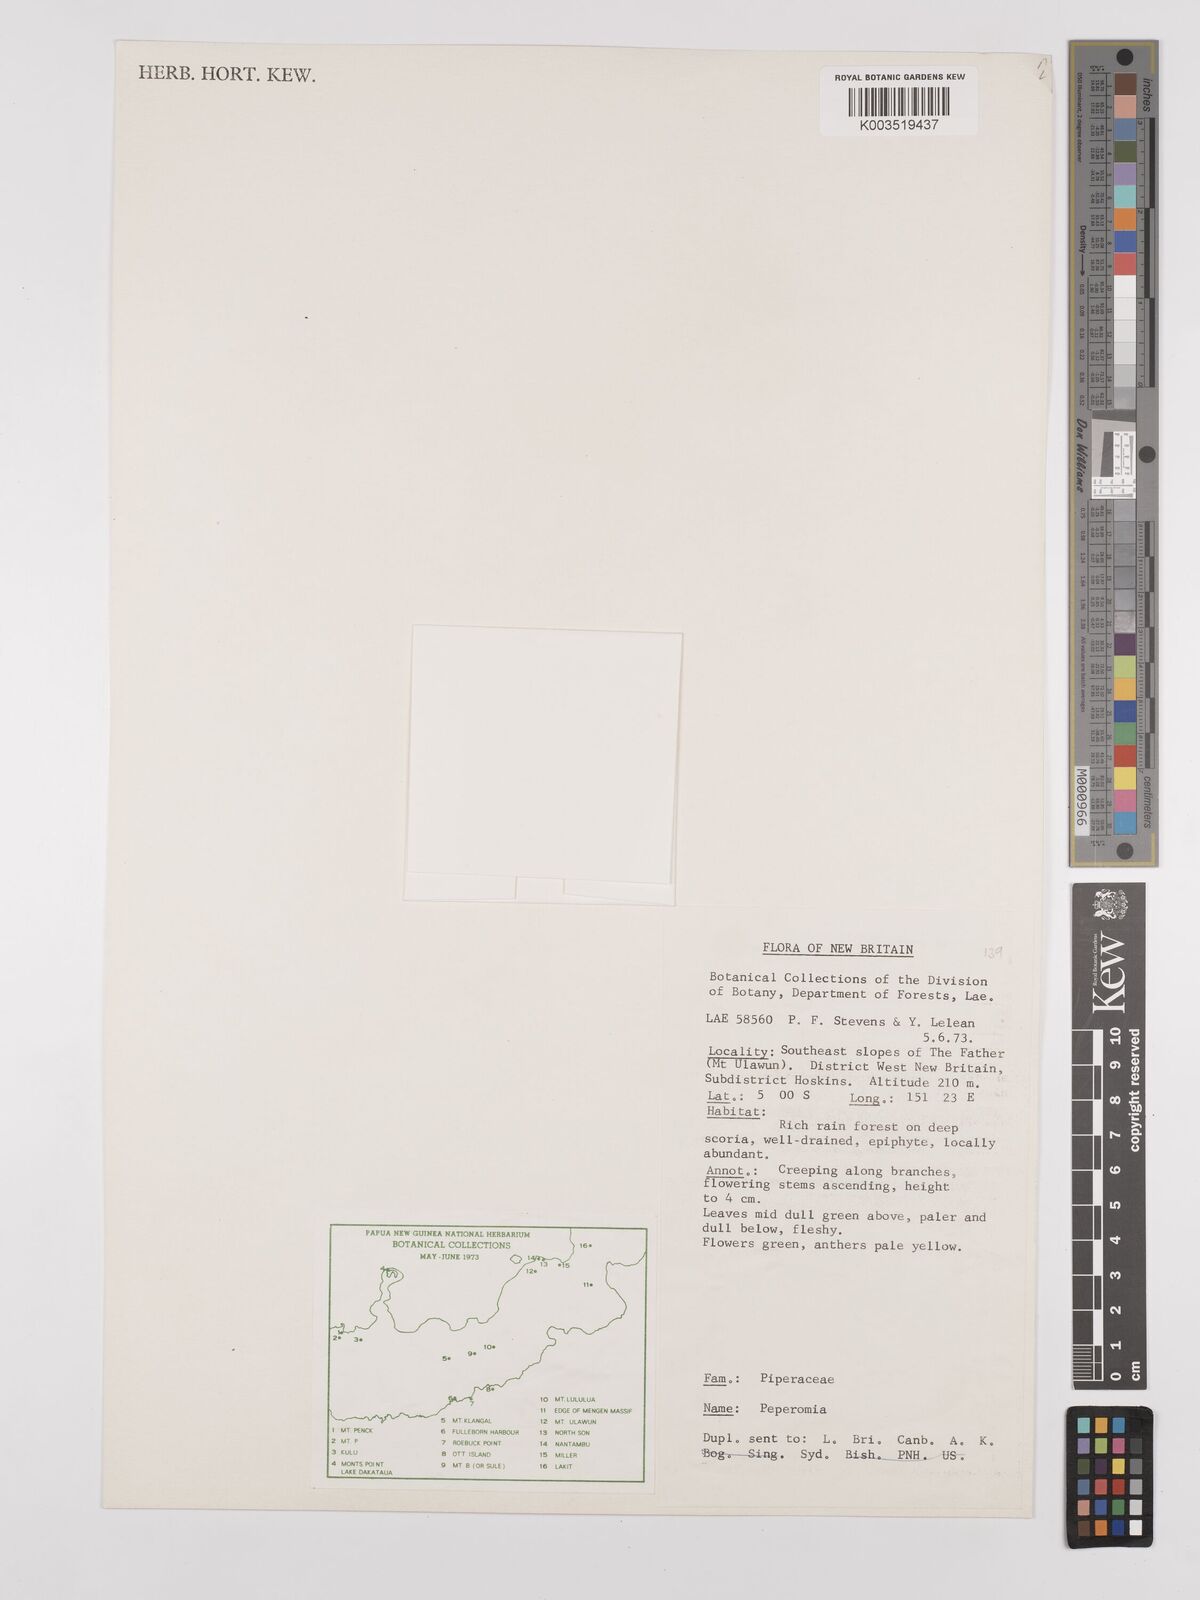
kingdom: Plantae
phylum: Tracheophyta
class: Magnoliopsida
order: Piperales
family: Piperaceae
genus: Peperomia
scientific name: Peperomia
